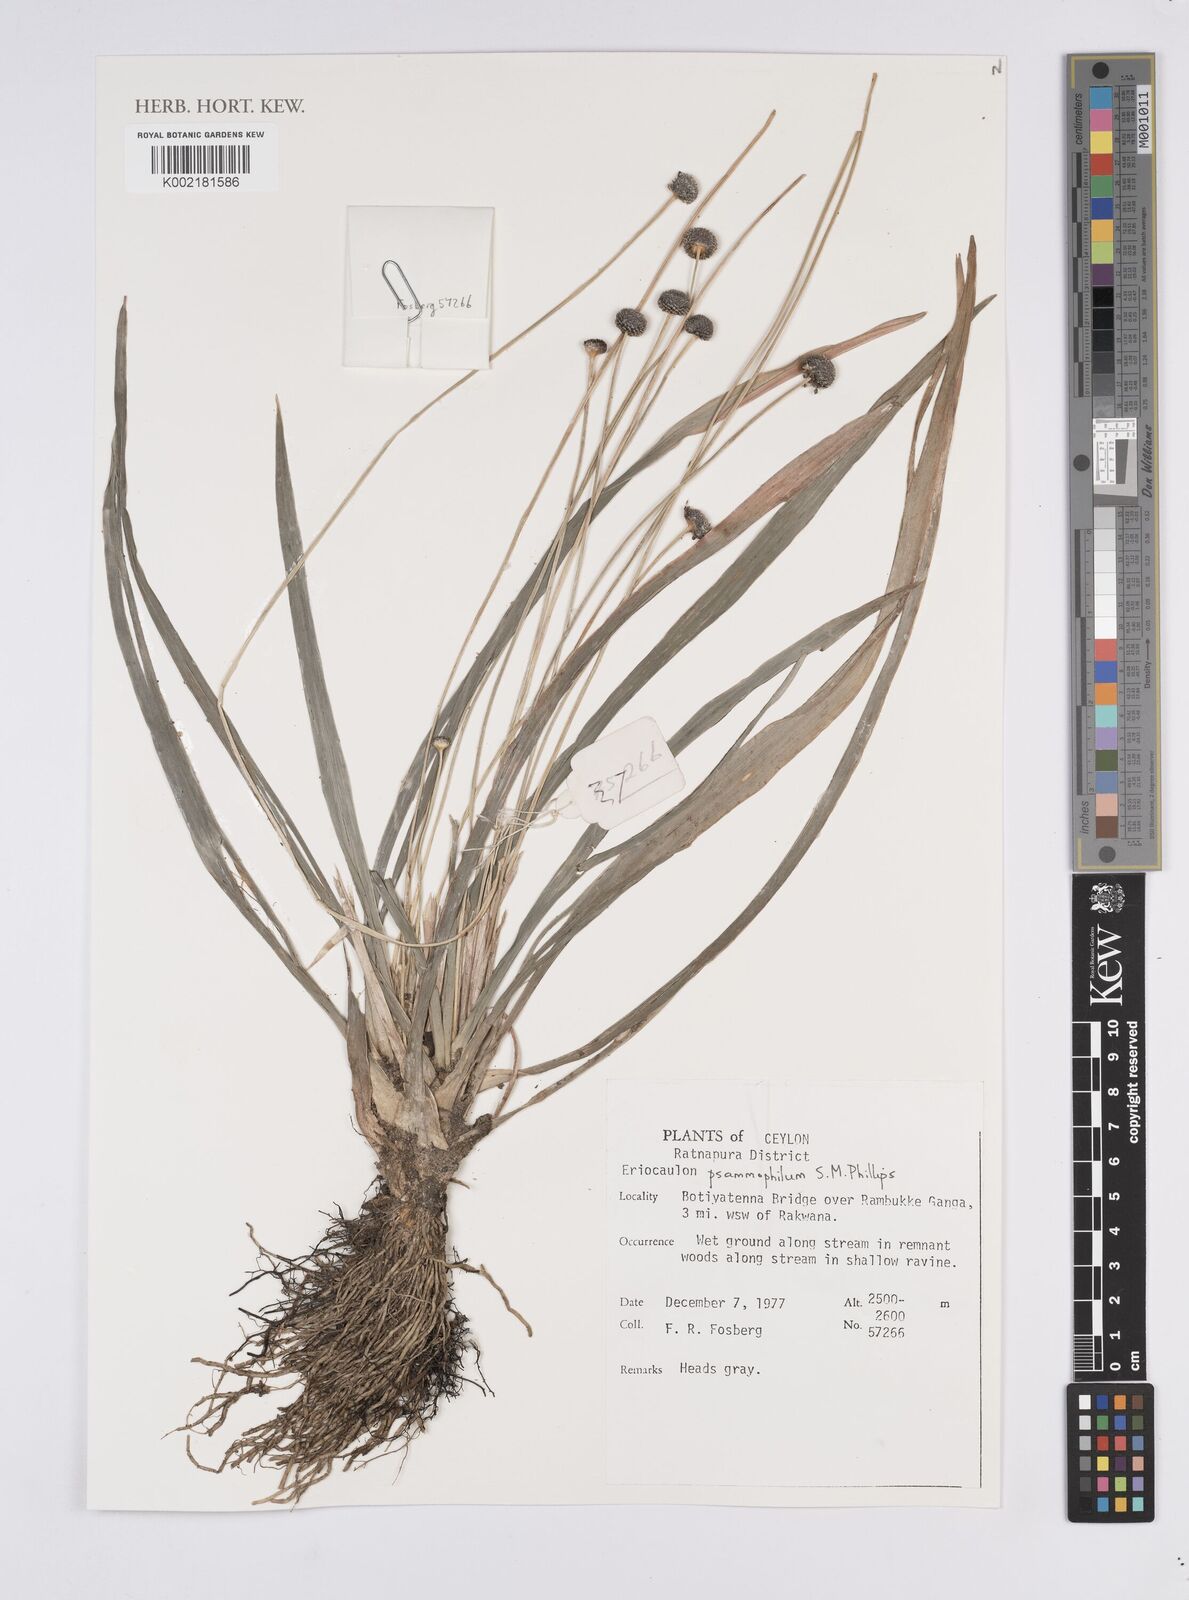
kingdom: Plantae
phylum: Tracheophyta
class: Liliopsida
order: Poales
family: Eriocaulaceae
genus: Eriocaulon
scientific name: Eriocaulon psammophilum
